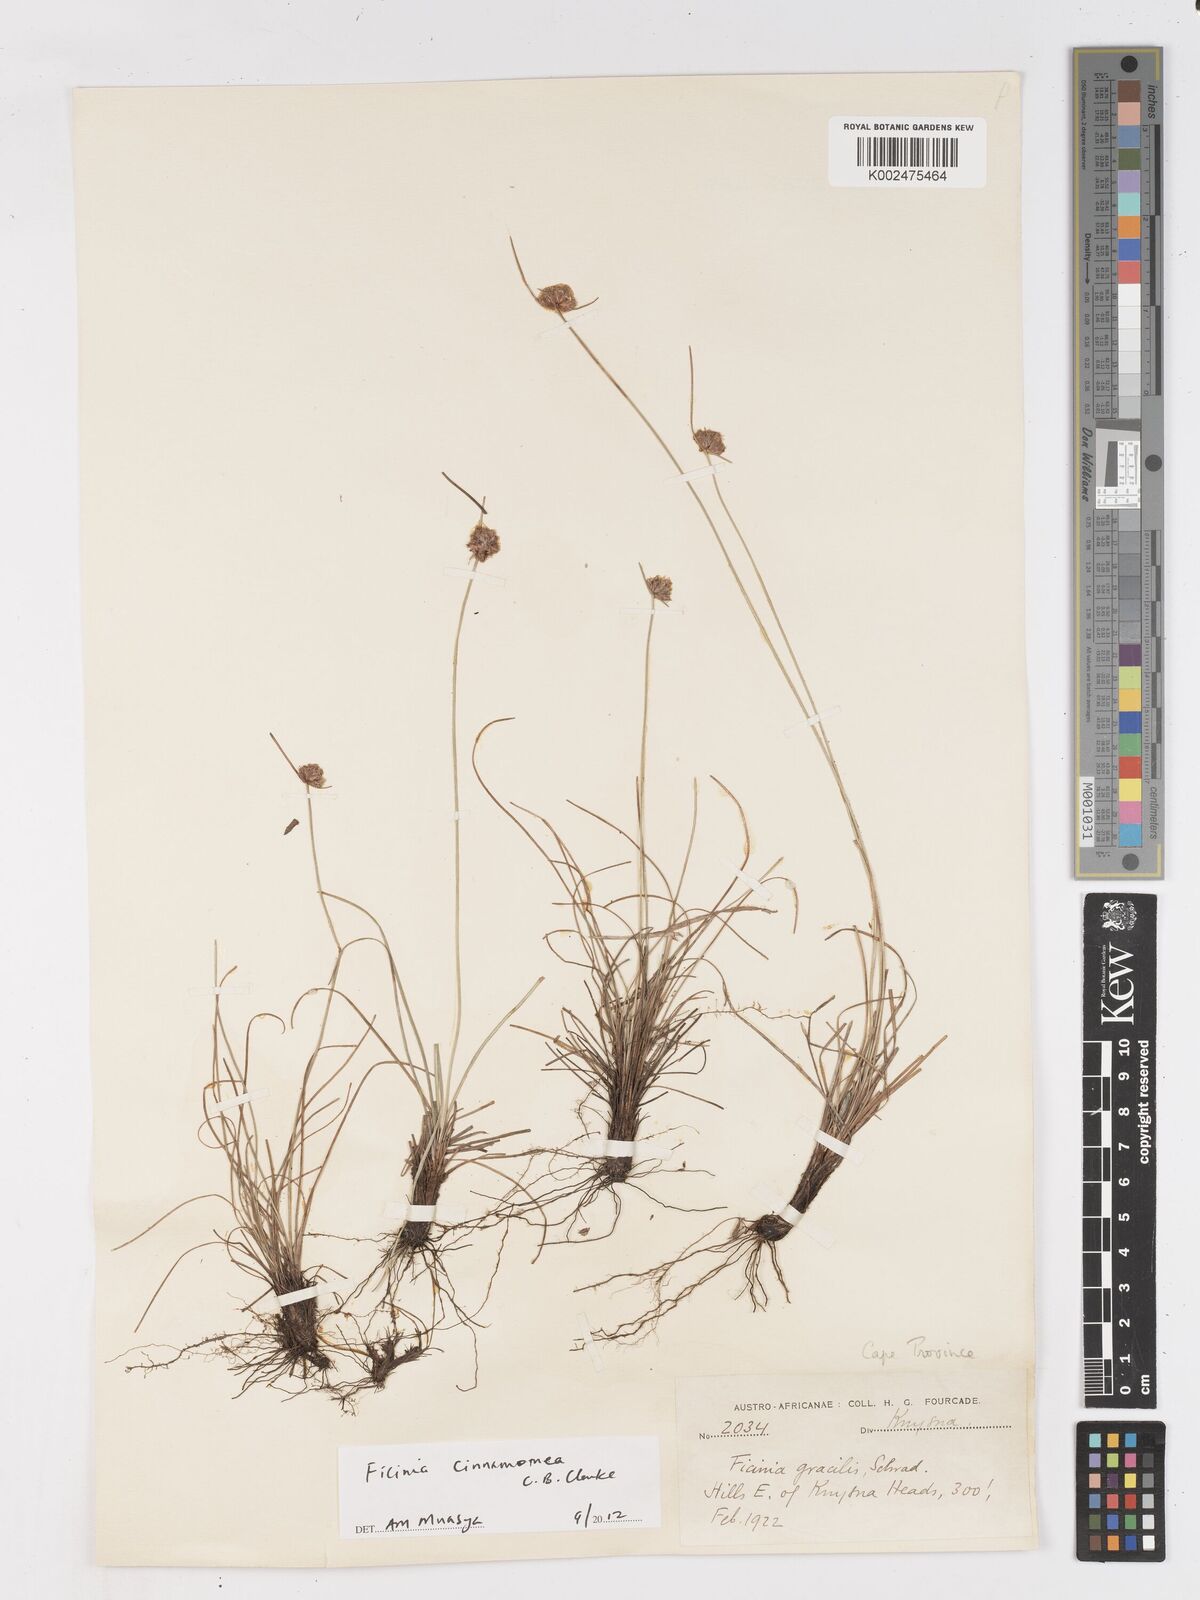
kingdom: Plantae
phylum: Tracheophyta
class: Liliopsida
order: Poales
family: Cyperaceae
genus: Ficinia
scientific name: Ficinia cinnamomea
